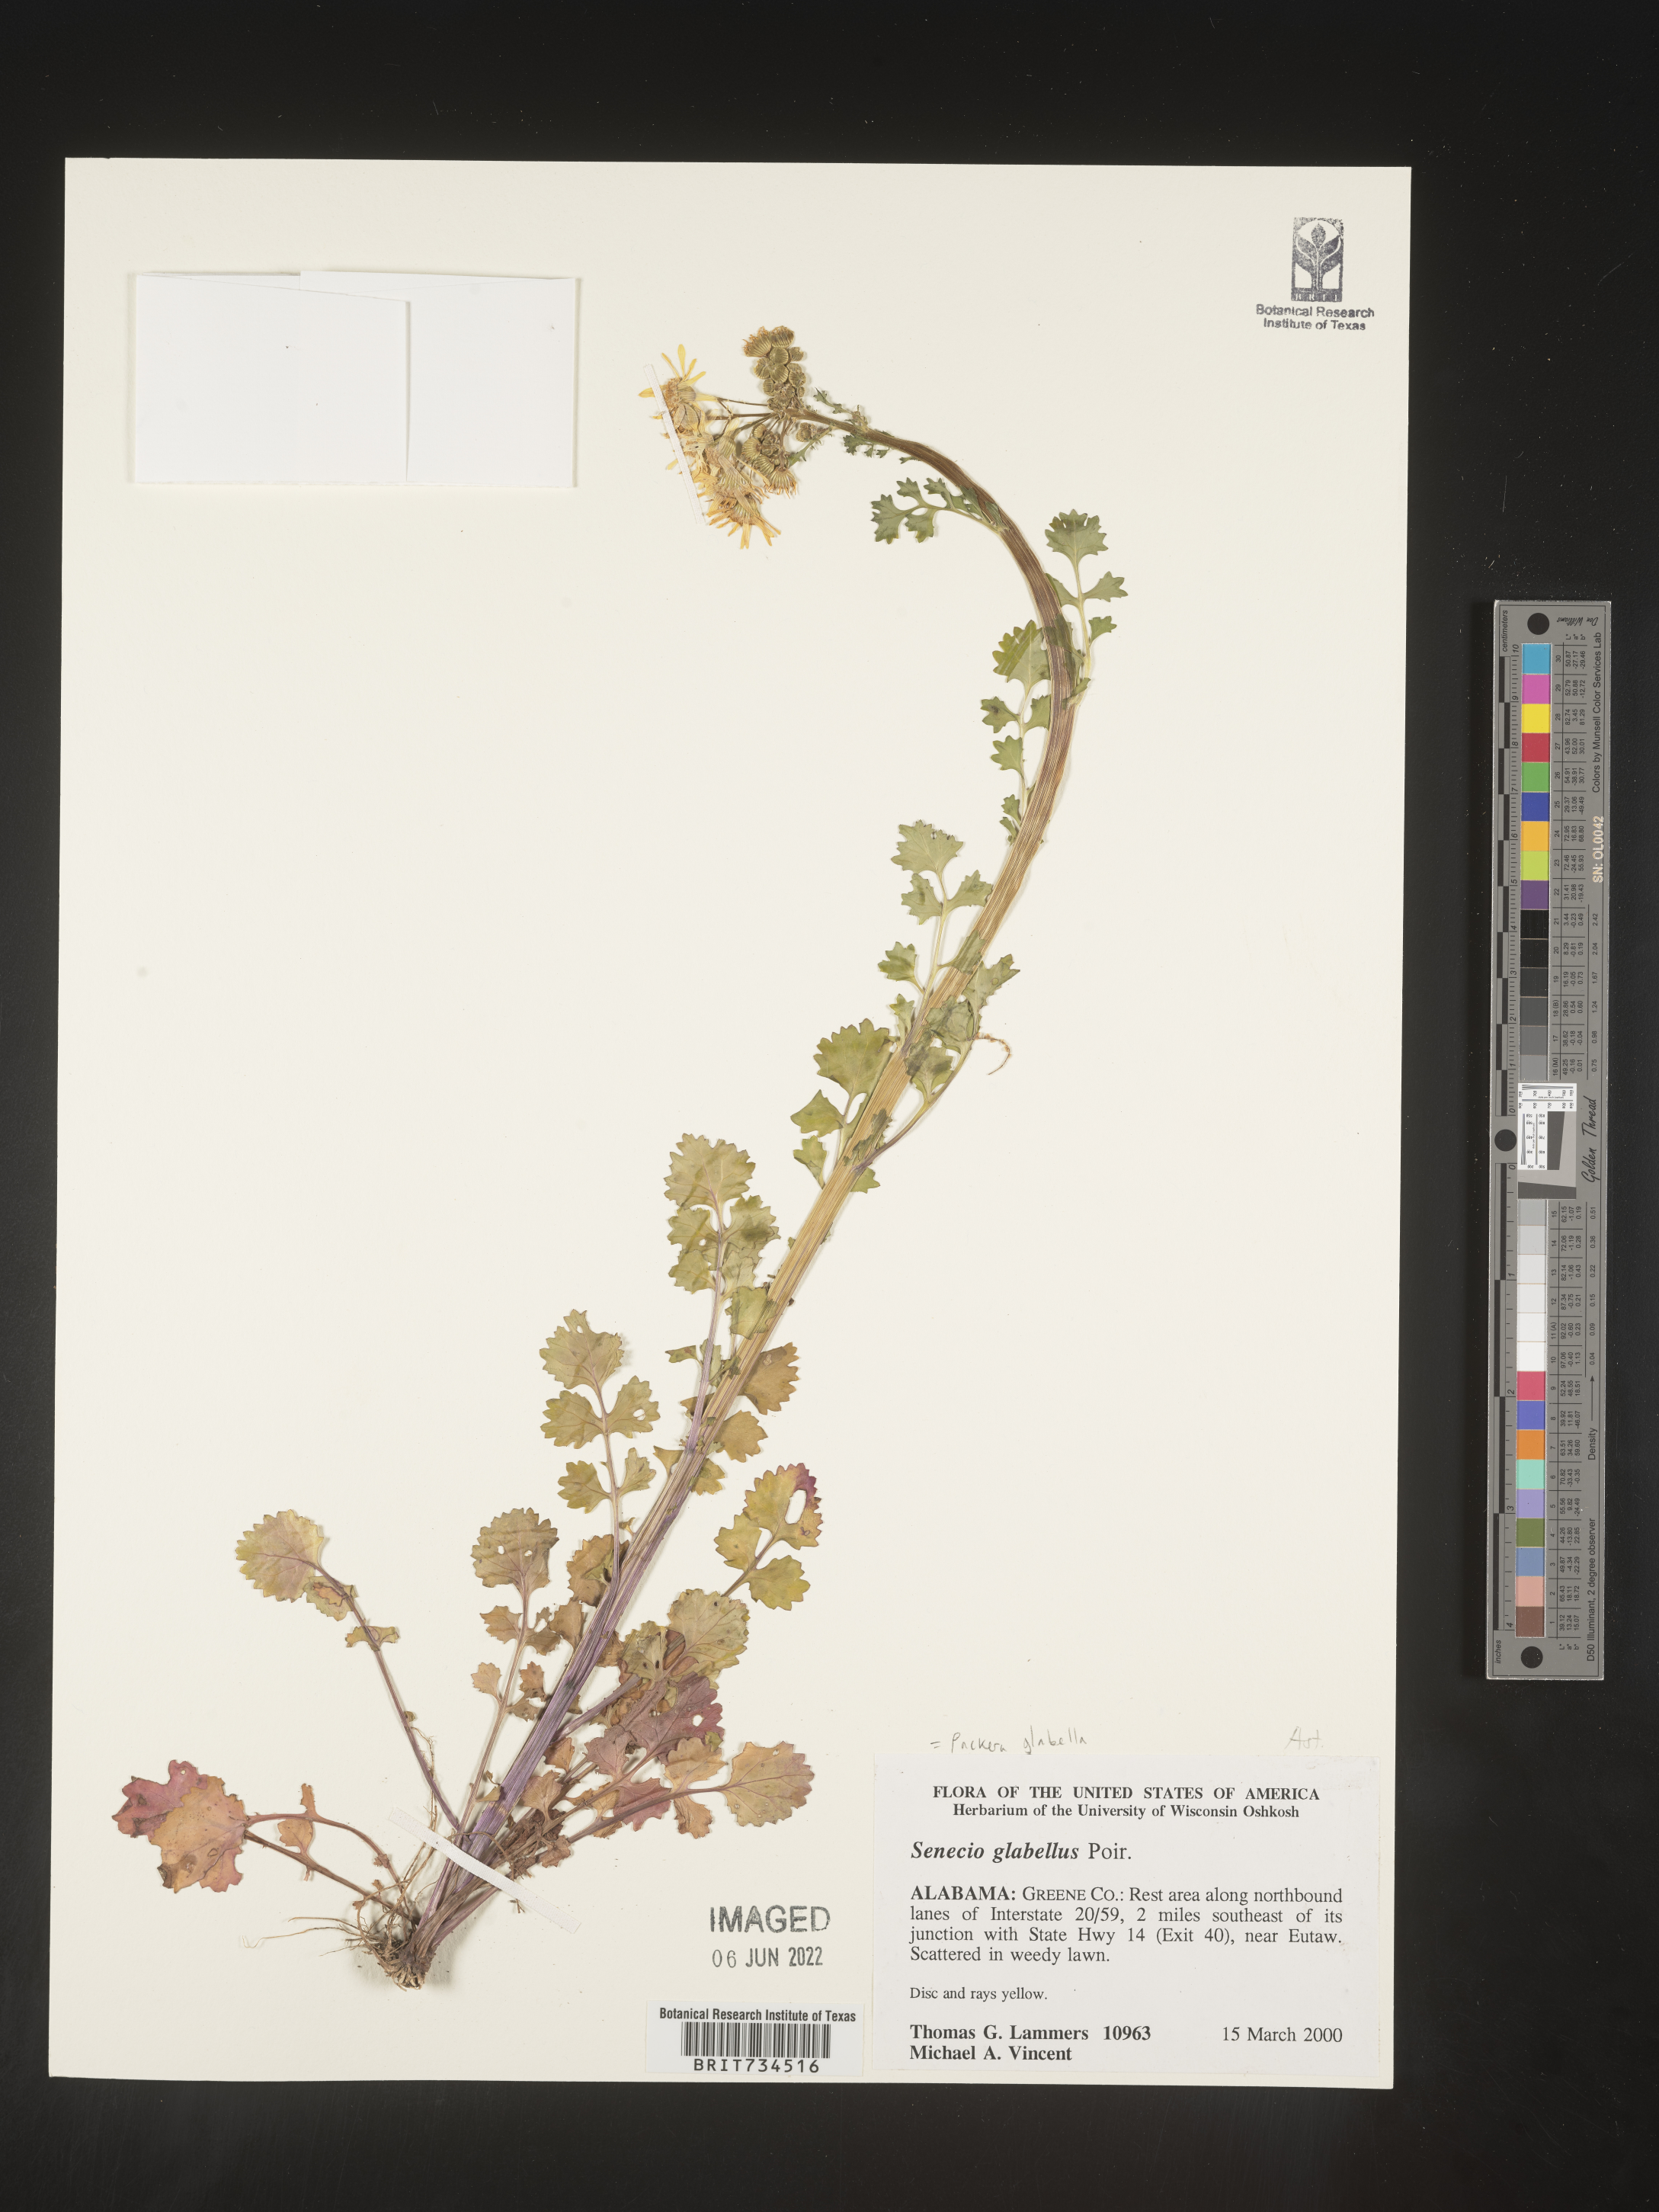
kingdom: Plantae
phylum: Tracheophyta
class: Magnoliopsida
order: Asterales
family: Asteraceae
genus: Packera
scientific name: Packera glabella
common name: Butterweed
